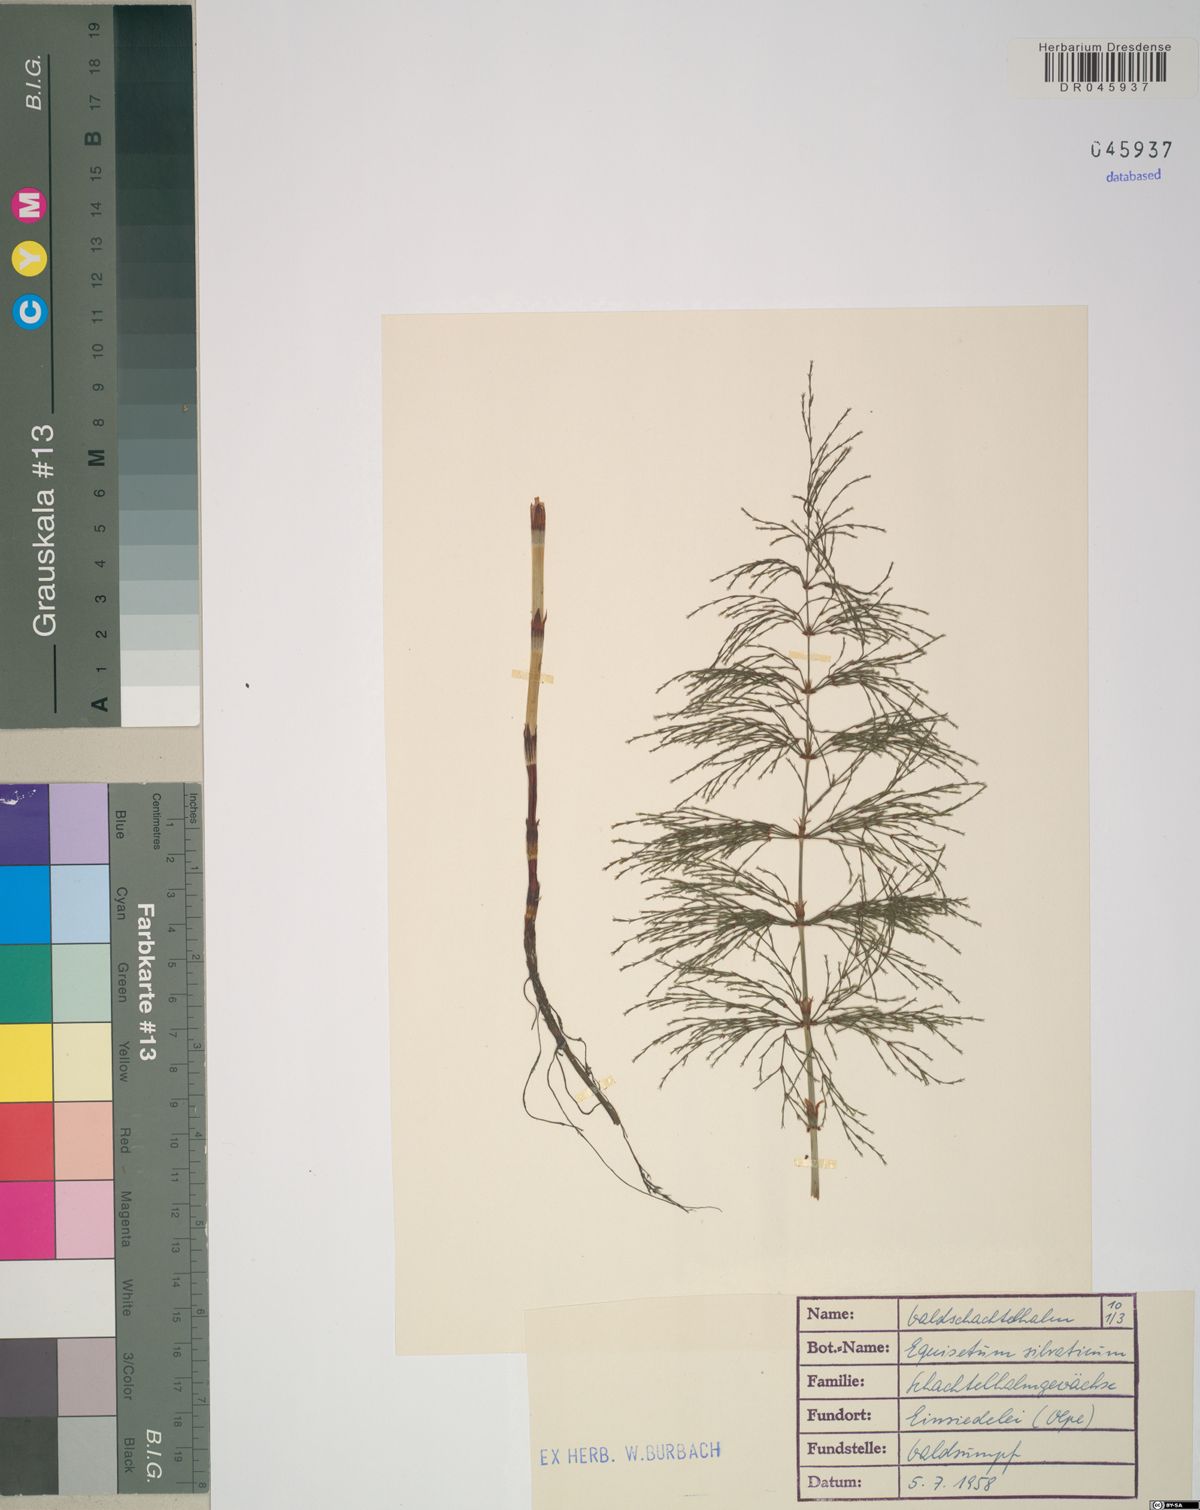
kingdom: Plantae
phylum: Tracheophyta
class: Polypodiopsida
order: Equisetales
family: Equisetaceae
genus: Equisetum
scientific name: Equisetum sylvaticum
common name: Wood horsetail
